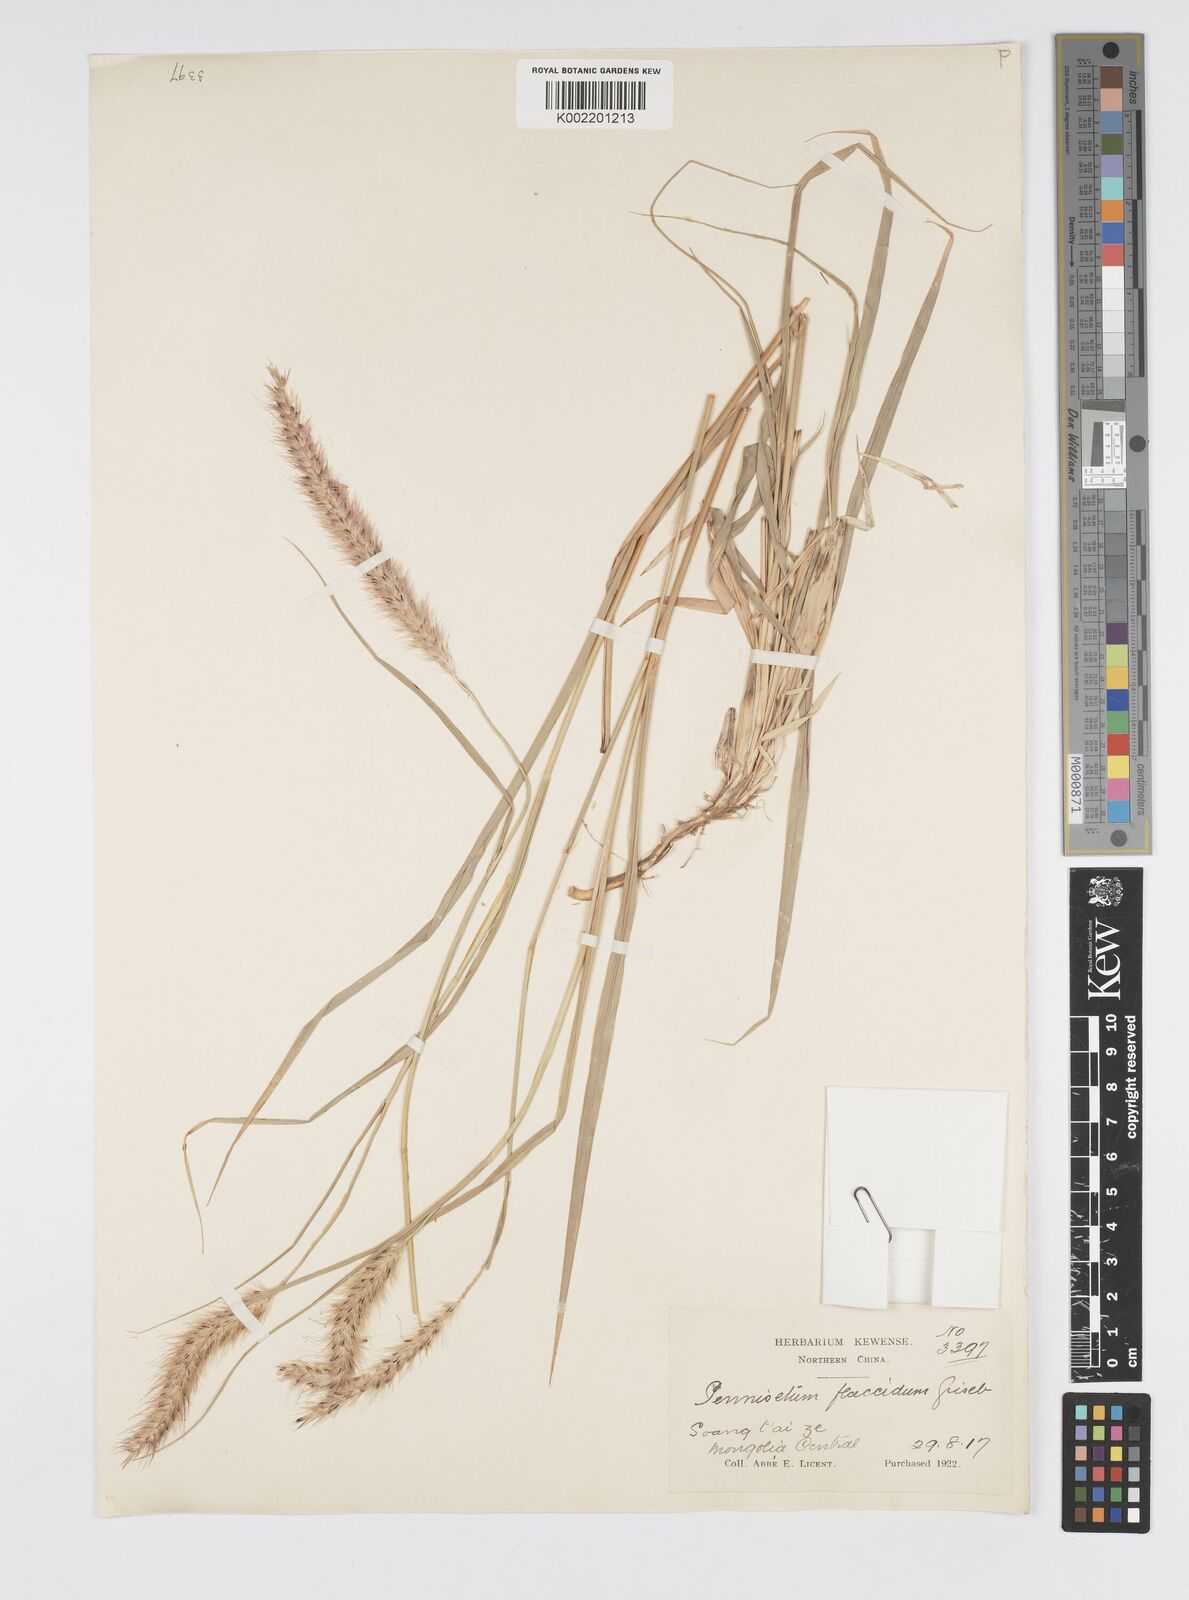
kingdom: Plantae
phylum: Tracheophyta
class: Liliopsida
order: Poales
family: Poaceae
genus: Cenchrus
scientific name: Cenchrus flaccidus
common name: Flaccid grass
